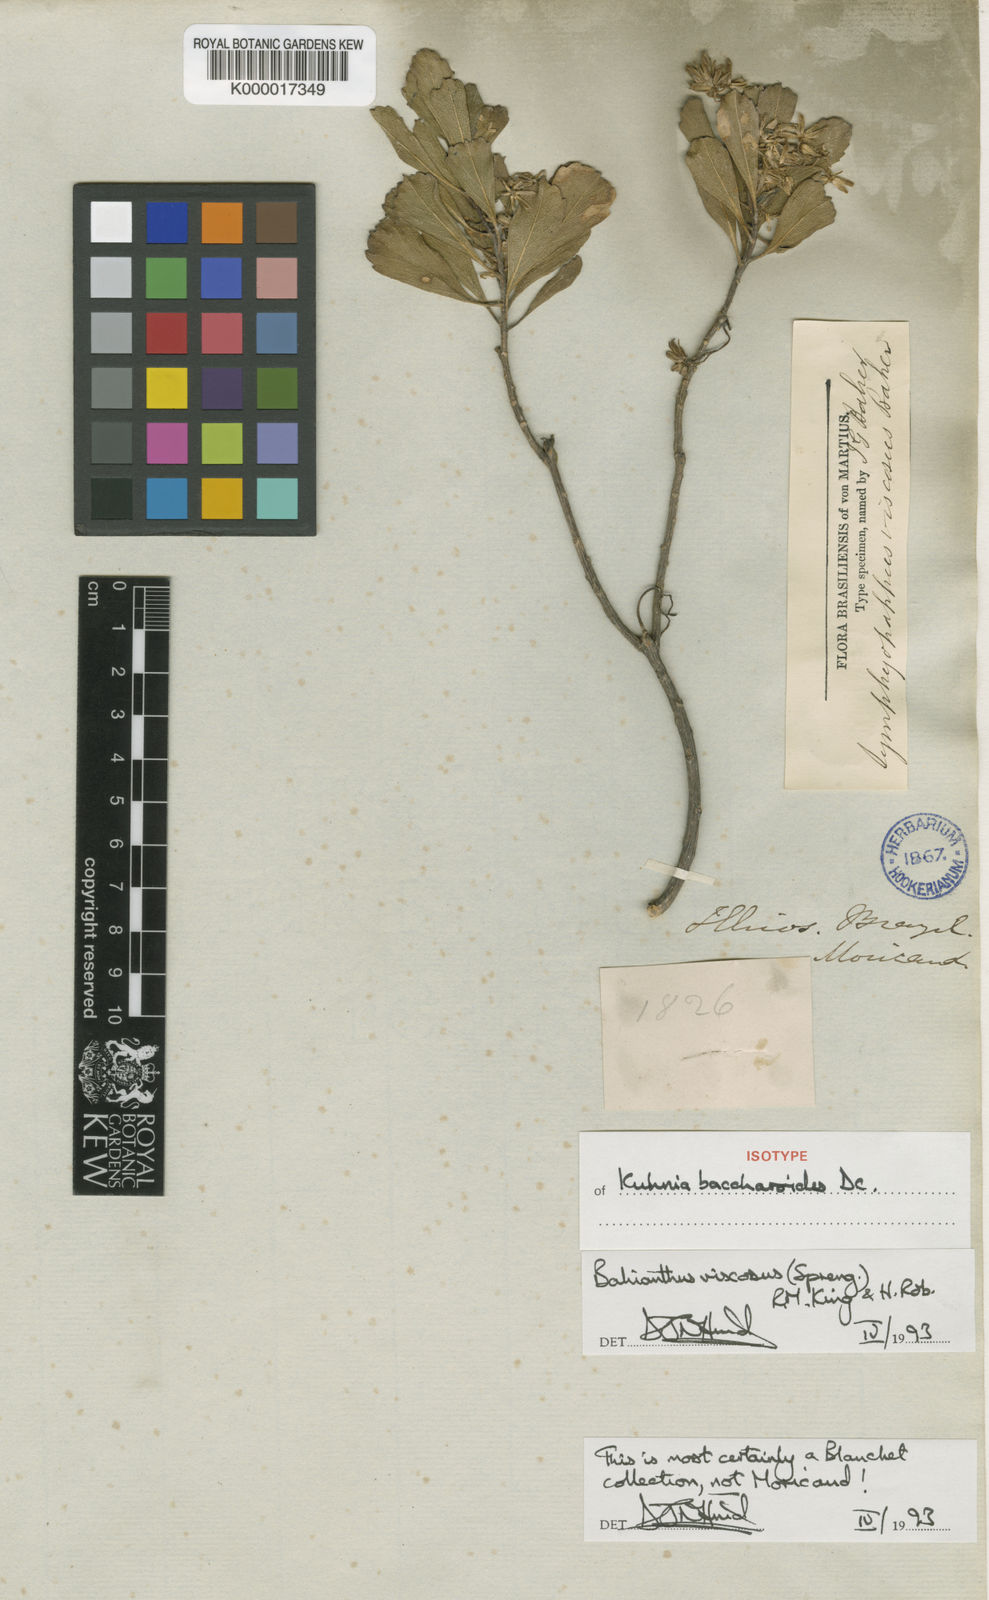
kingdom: Plantae
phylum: Tracheophyta
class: Magnoliopsida
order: Asterales
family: Asteraceae
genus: Bahianthus
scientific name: Bahianthus viscosus
